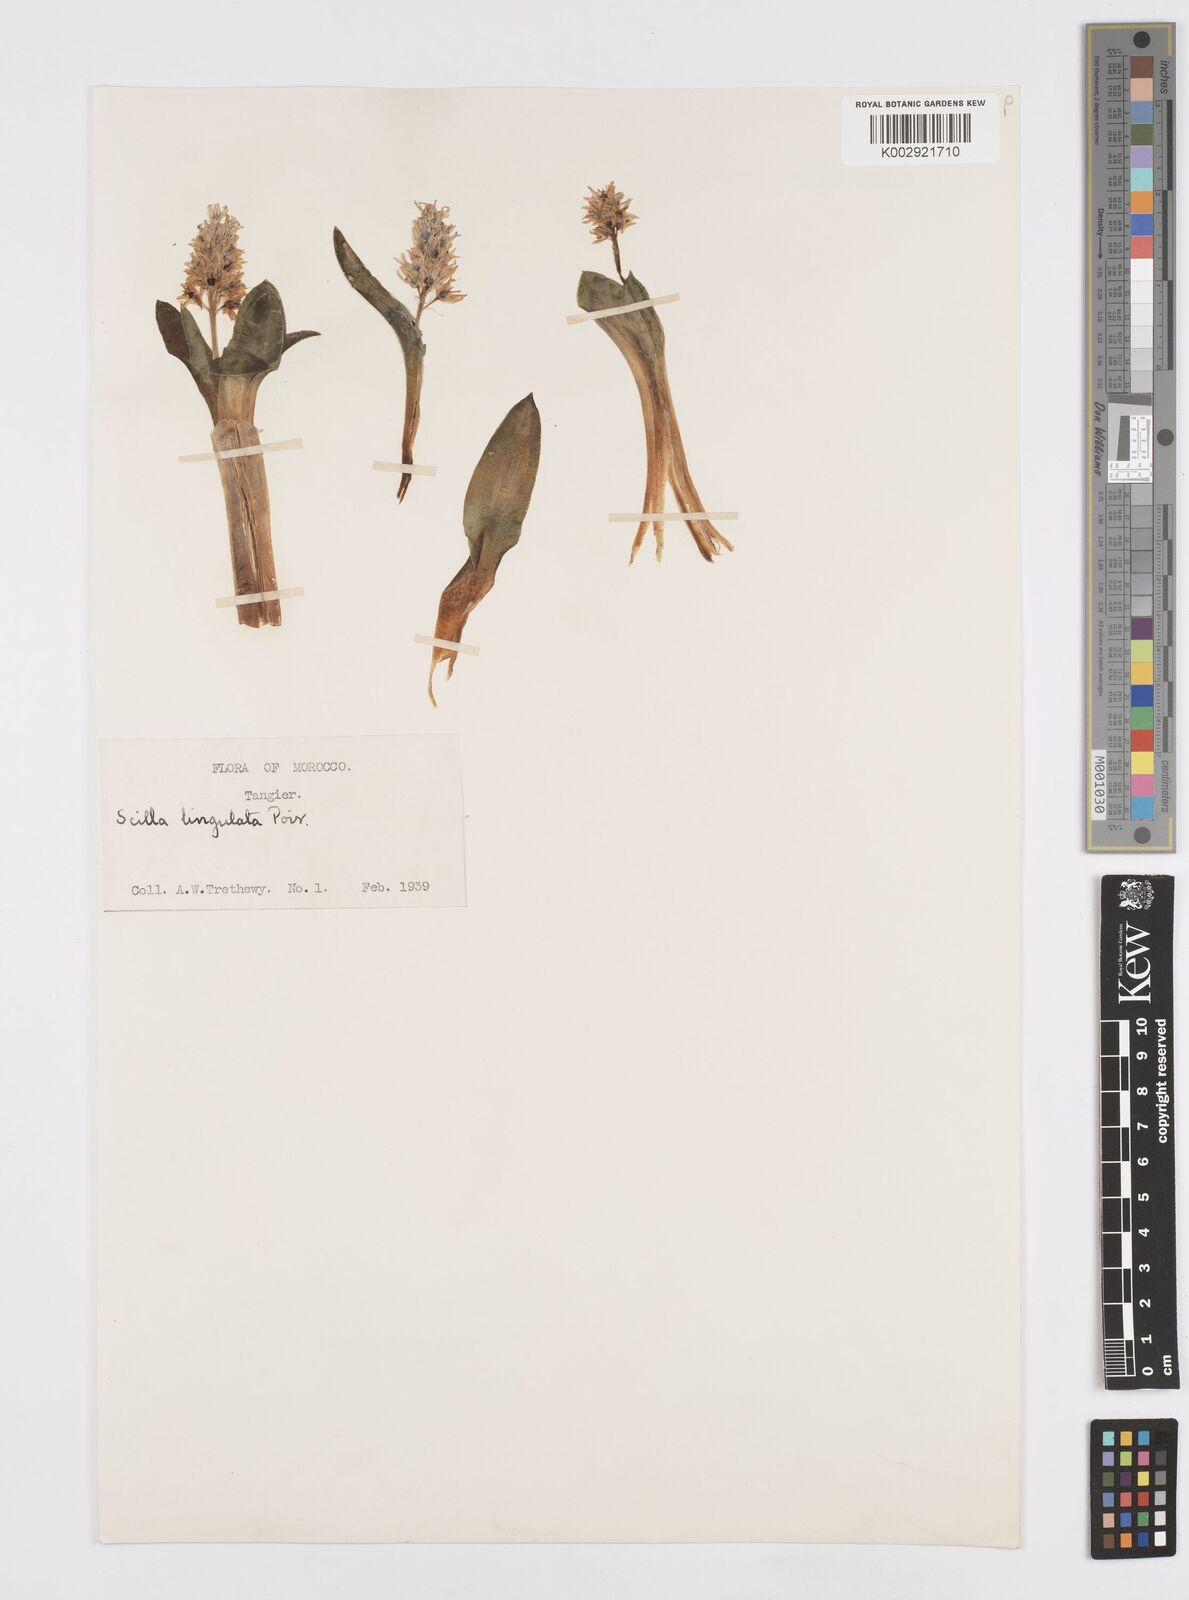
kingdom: Plantae
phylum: Tracheophyta
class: Liliopsida
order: Asparagales
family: Asparagaceae
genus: Hyacinthoides
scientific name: Hyacinthoides lingulata
